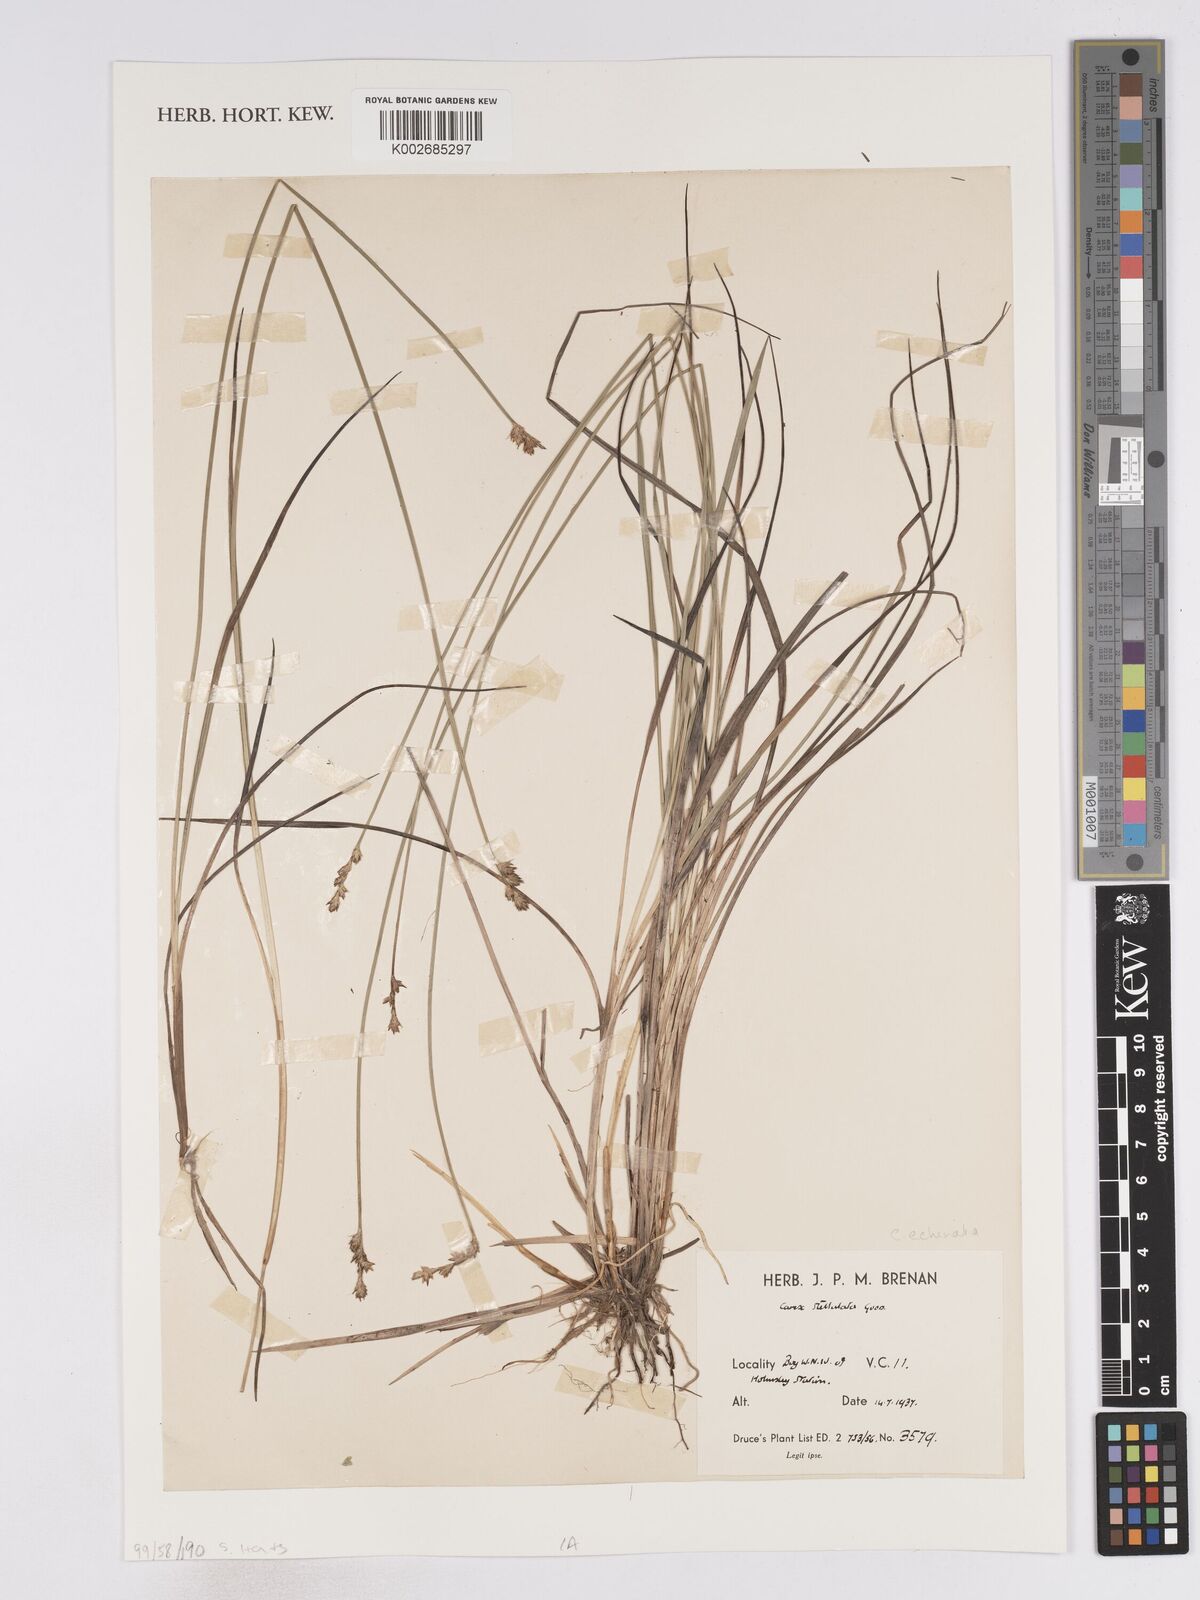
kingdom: Plantae
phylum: Tracheophyta
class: Liliopsida
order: Poales
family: Cyperaceae
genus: Carex
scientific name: Carex echinata
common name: Star sedge
